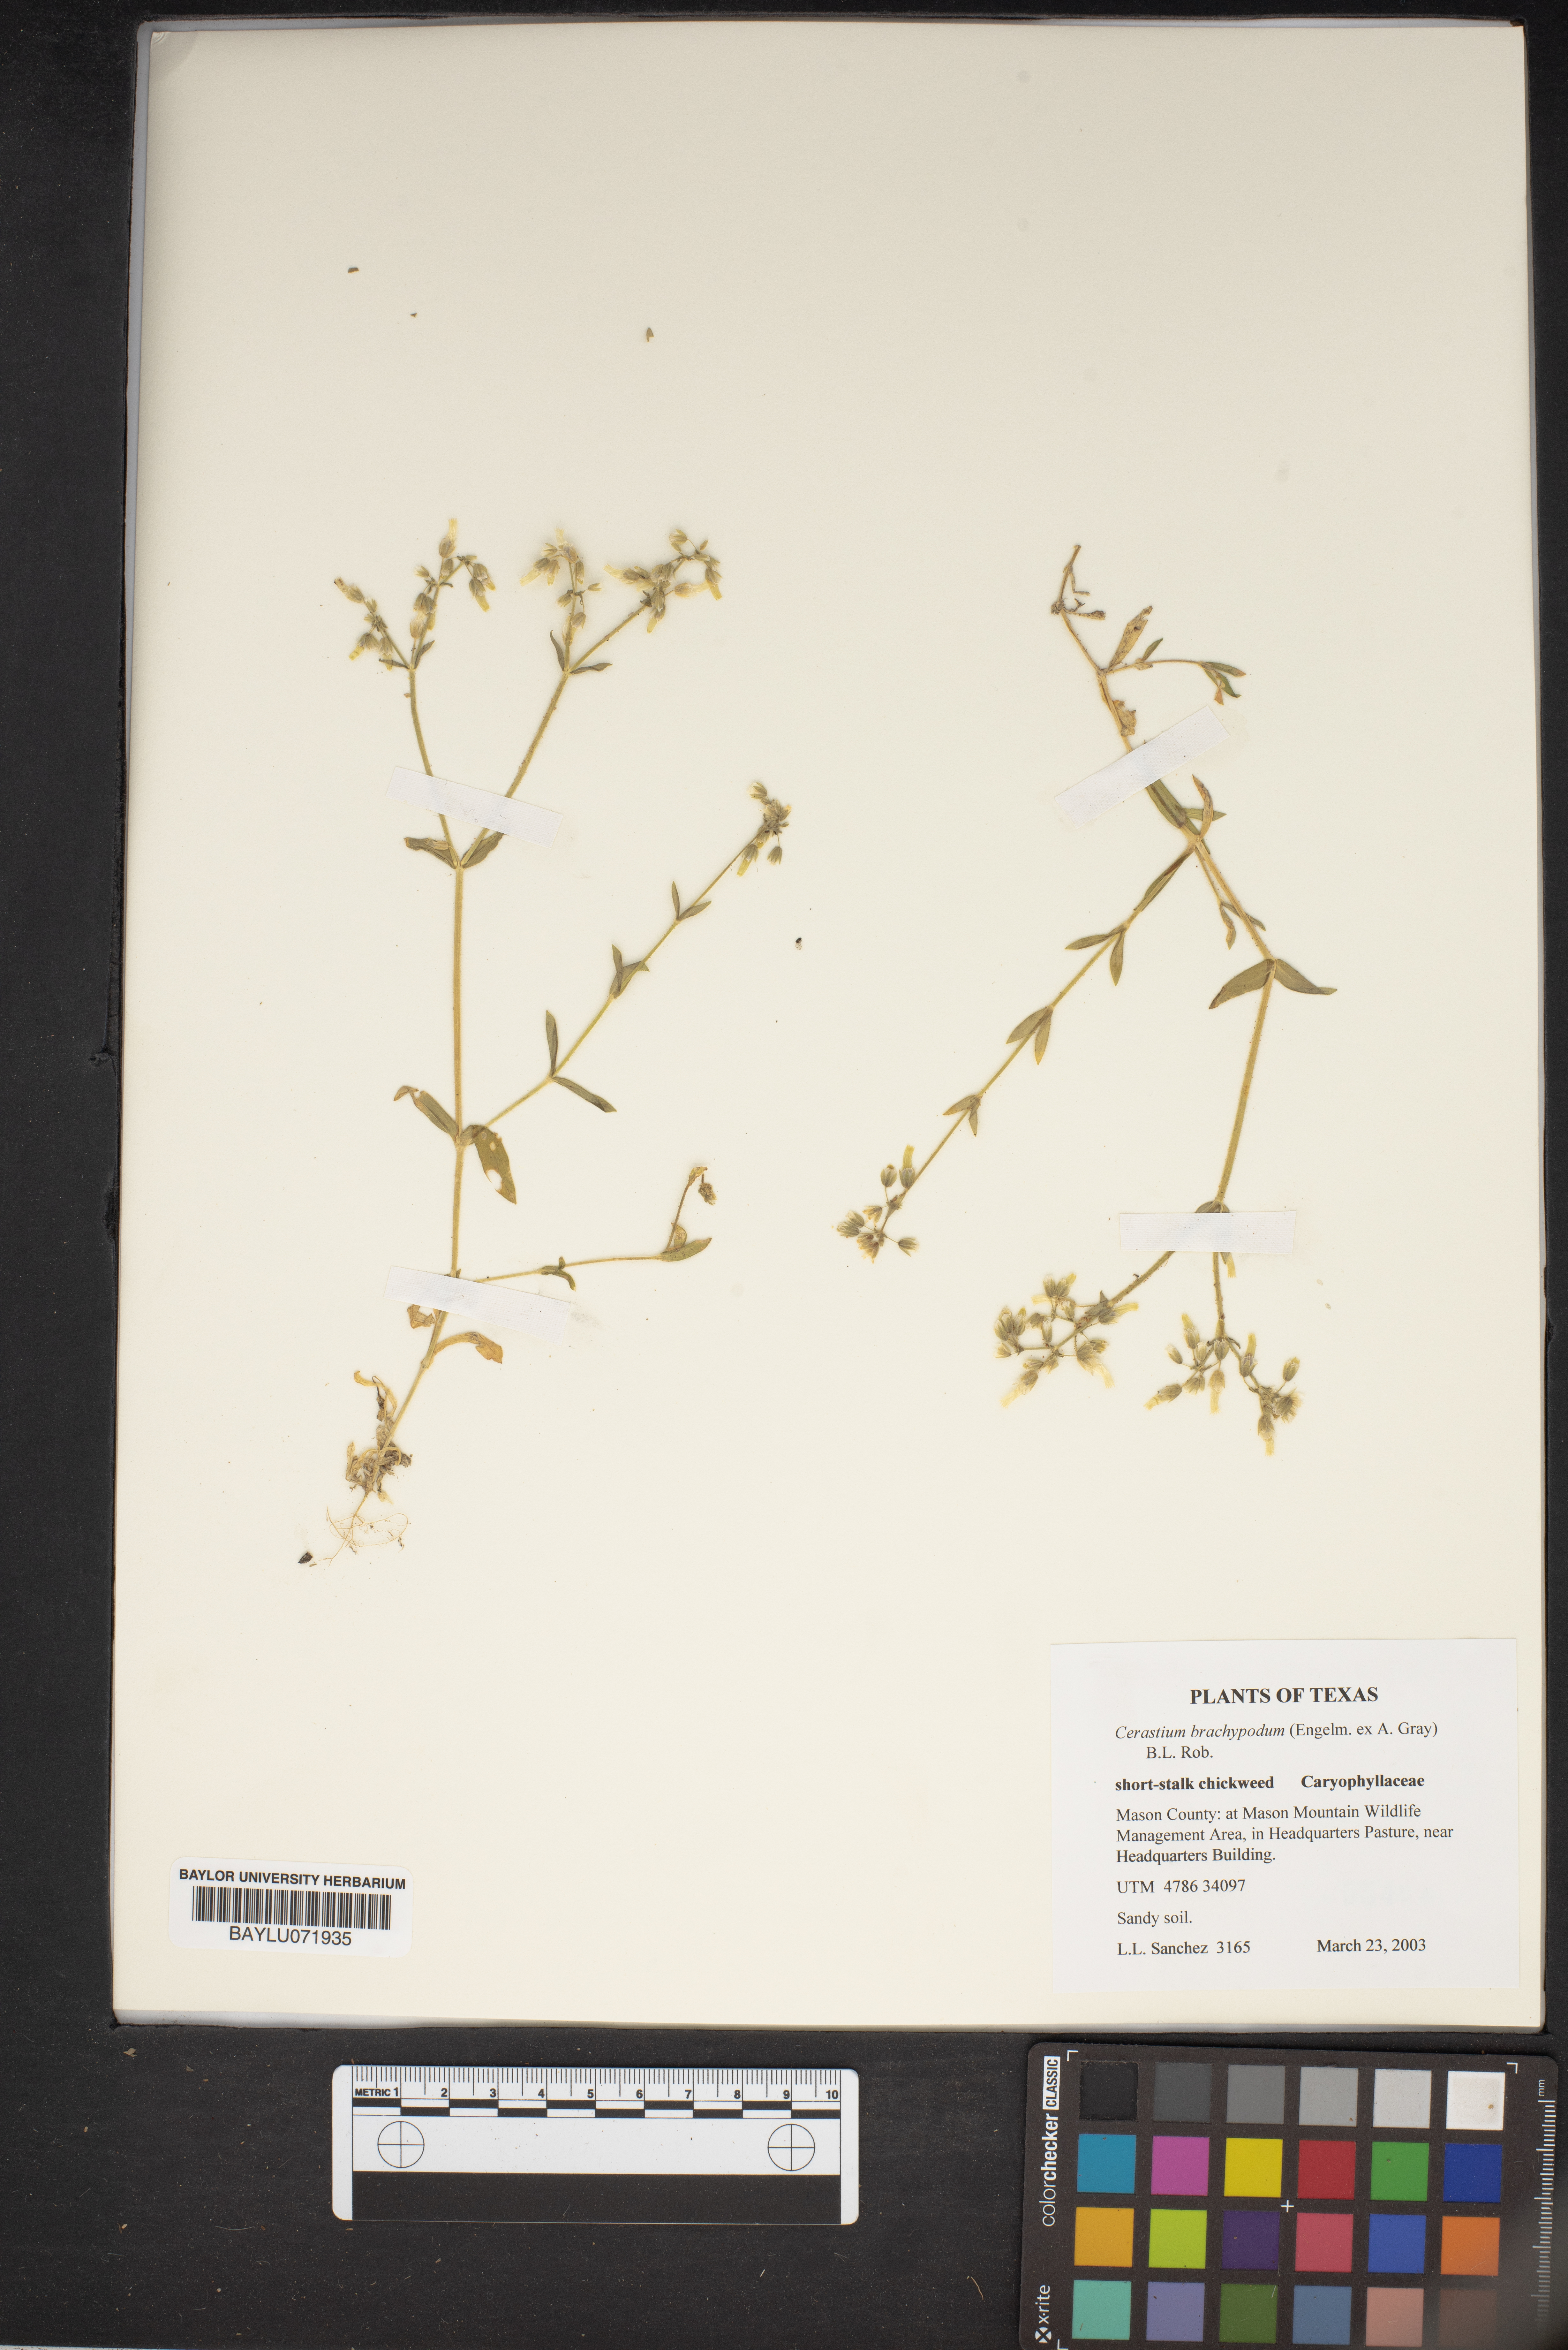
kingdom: Plantae
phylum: Tracheophyta
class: Magnoliopsida
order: Caryophyllales
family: Caryophyllaceae
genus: Cerastium
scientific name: Cerastium brachypodum
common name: Short-pedicelled nodding chickweed
